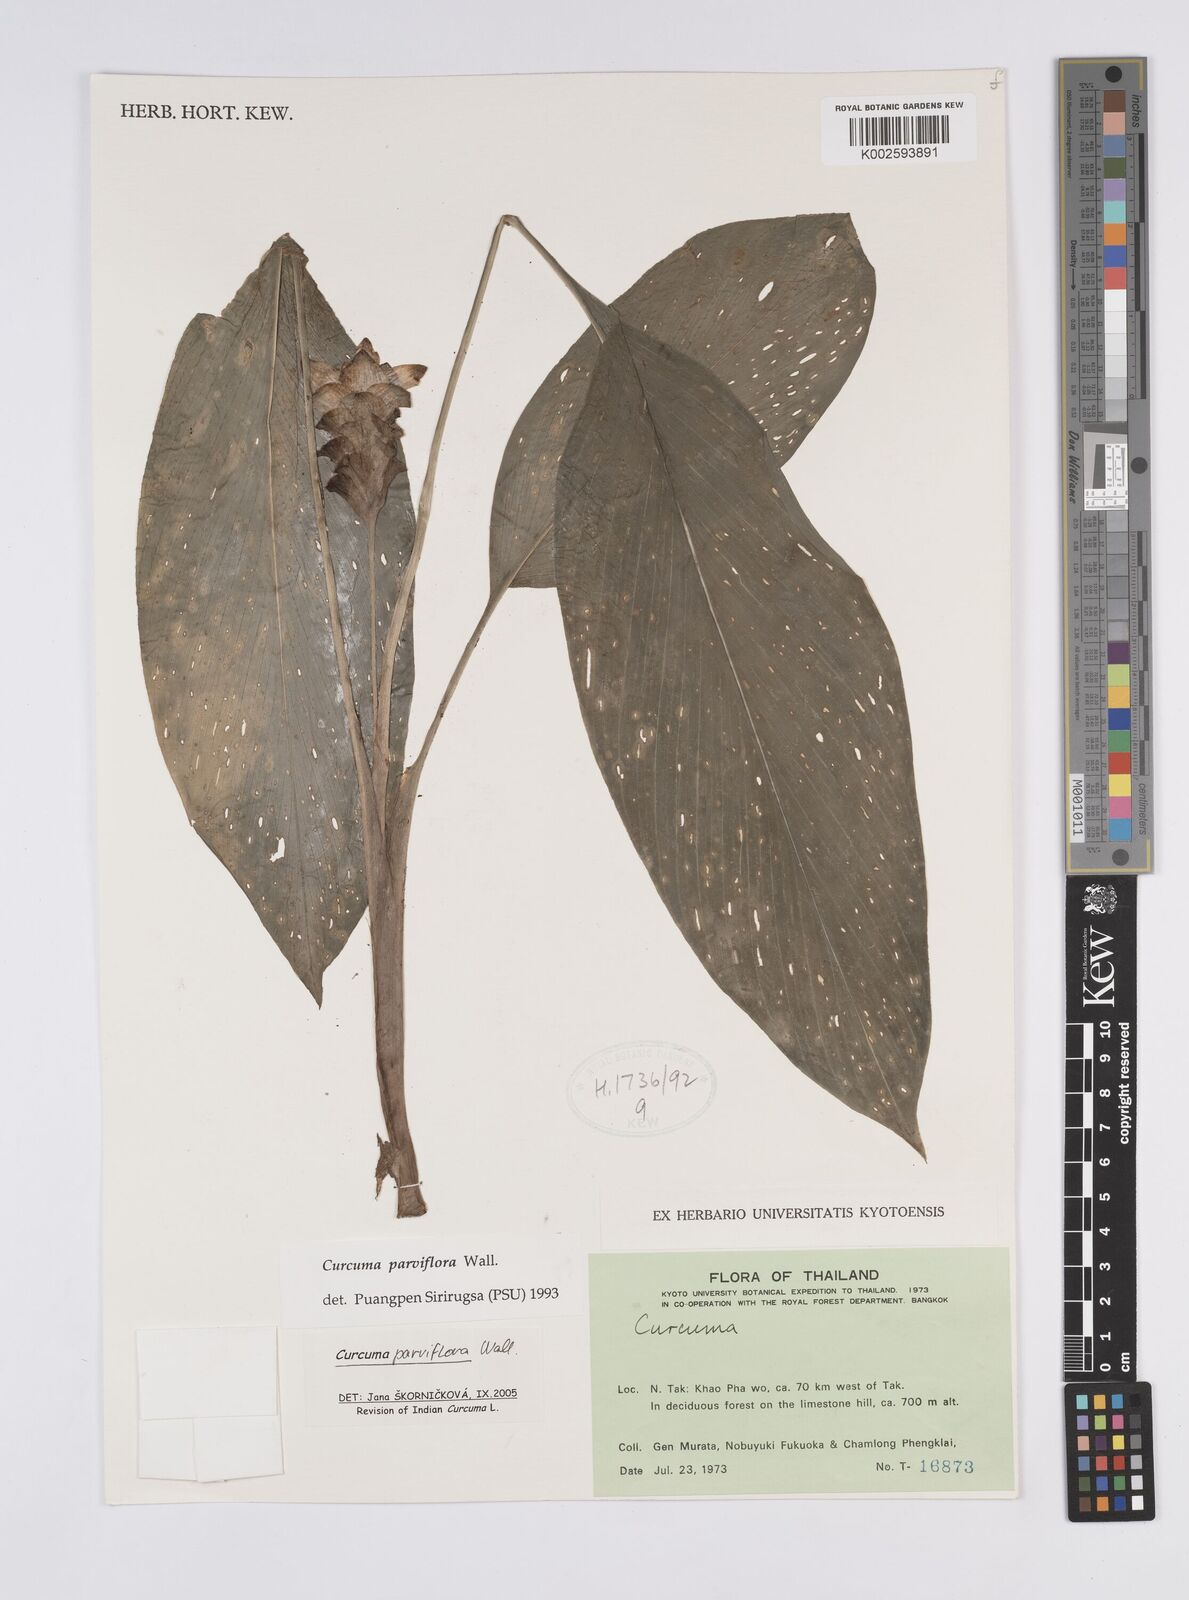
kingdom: Plantae
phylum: Tracheophyta
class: Liliopsida
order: Zingiberales
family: Zingiberaceae
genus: Curcuma
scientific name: Curcuma parviflora
